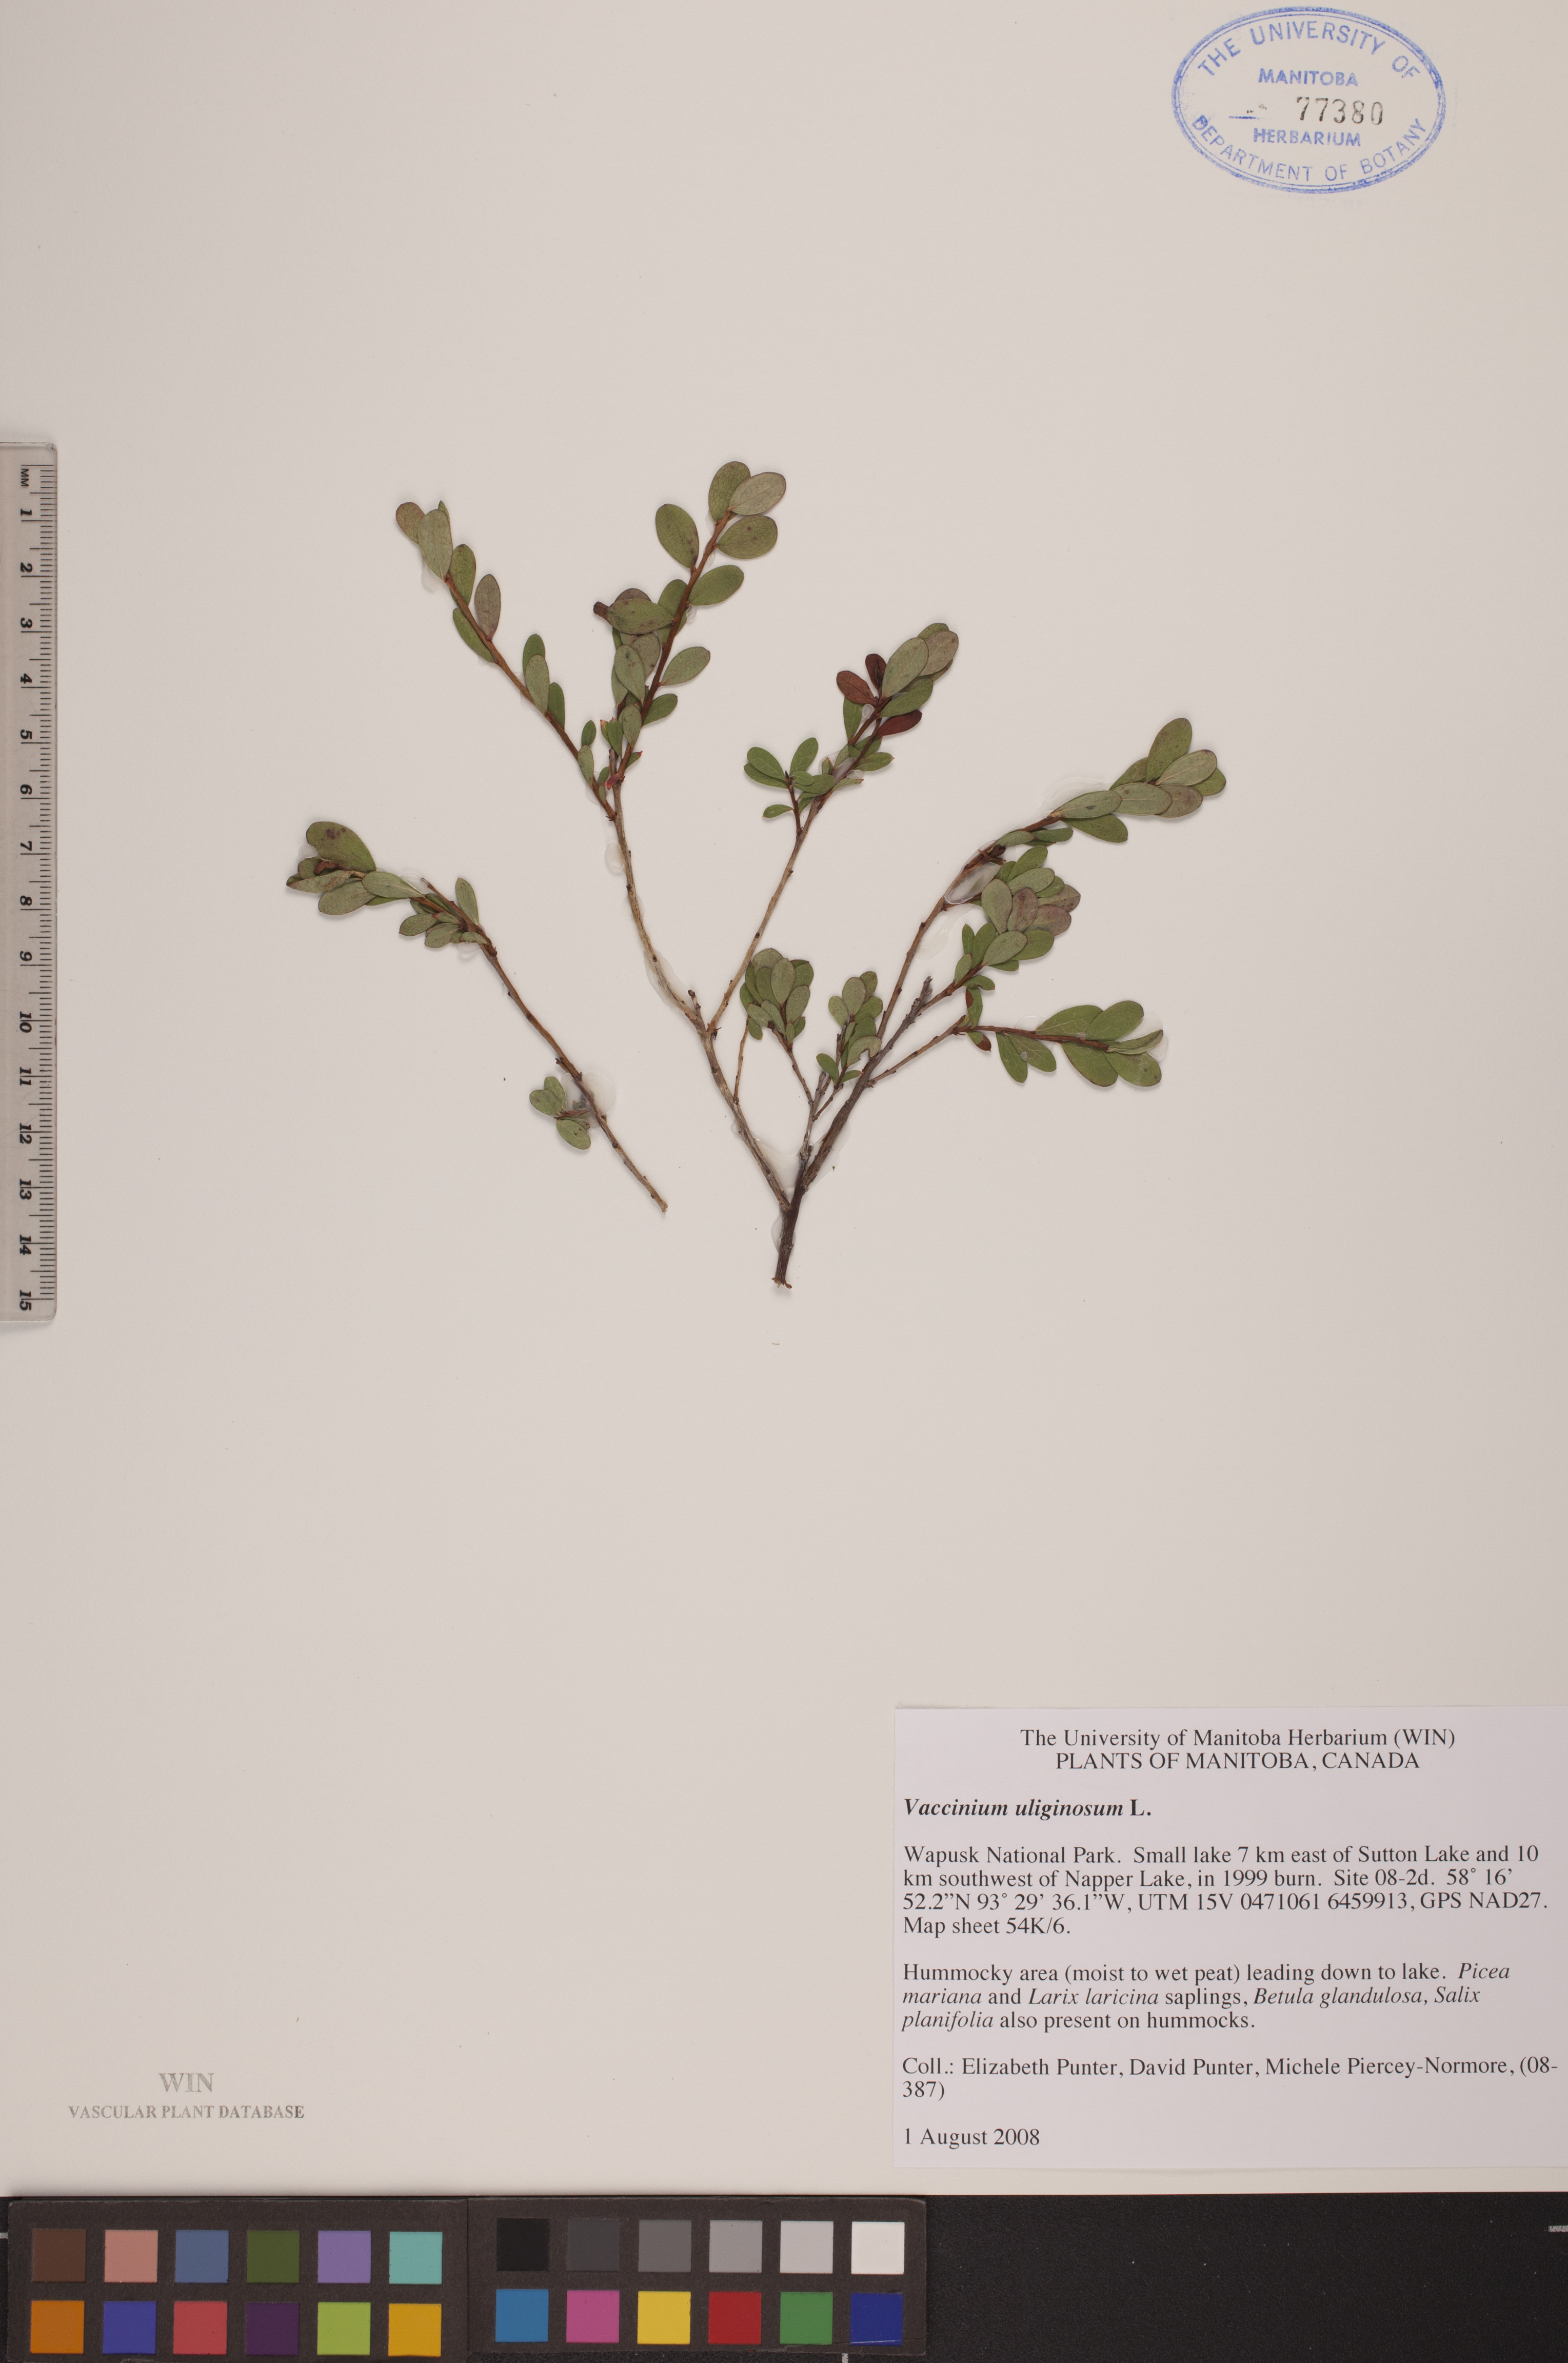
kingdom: Plantae
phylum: Tracheophyta
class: Magnoliopsida
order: Ericales
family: Ericaceae
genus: Vaccinium
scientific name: Vaccinium uliginosum
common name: Bog bilberry
